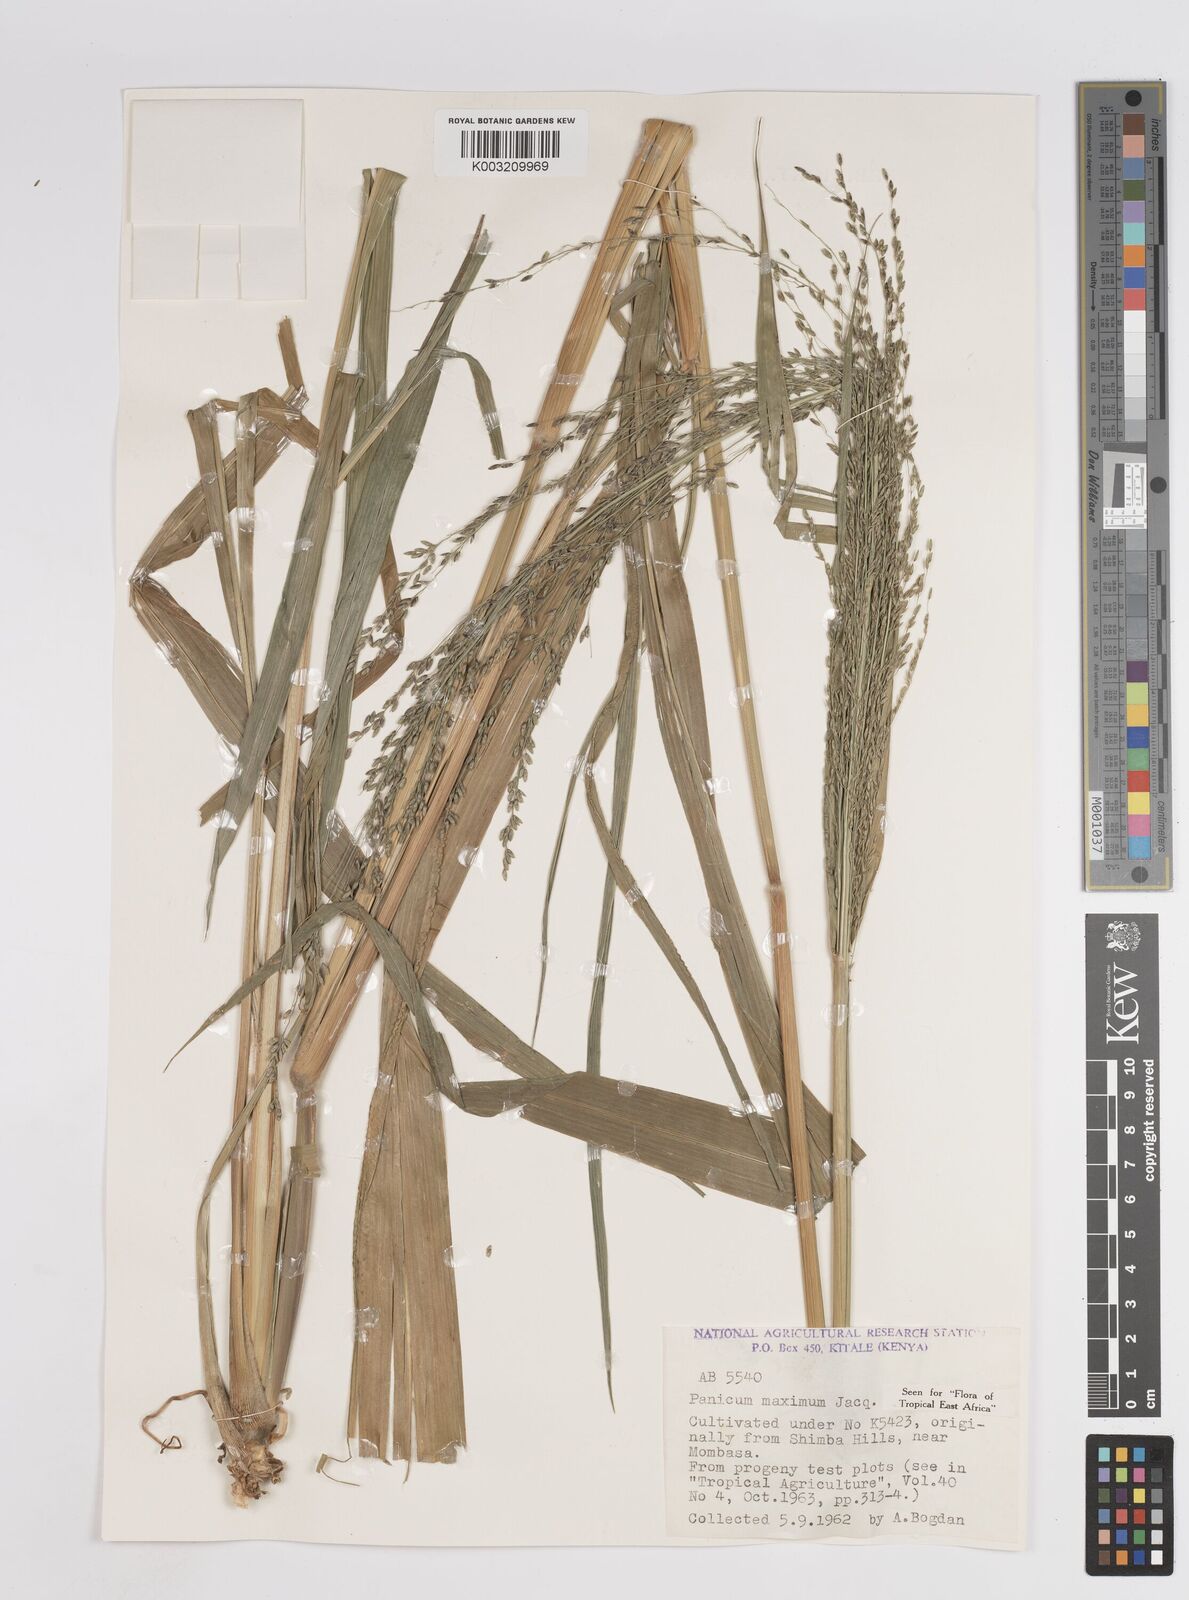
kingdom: Plantae
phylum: Tracheophyta
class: Liliopsida
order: Poales
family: Poaceae
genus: Megathyrsus
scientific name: Megathyrsus maximus
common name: Guineagrass
